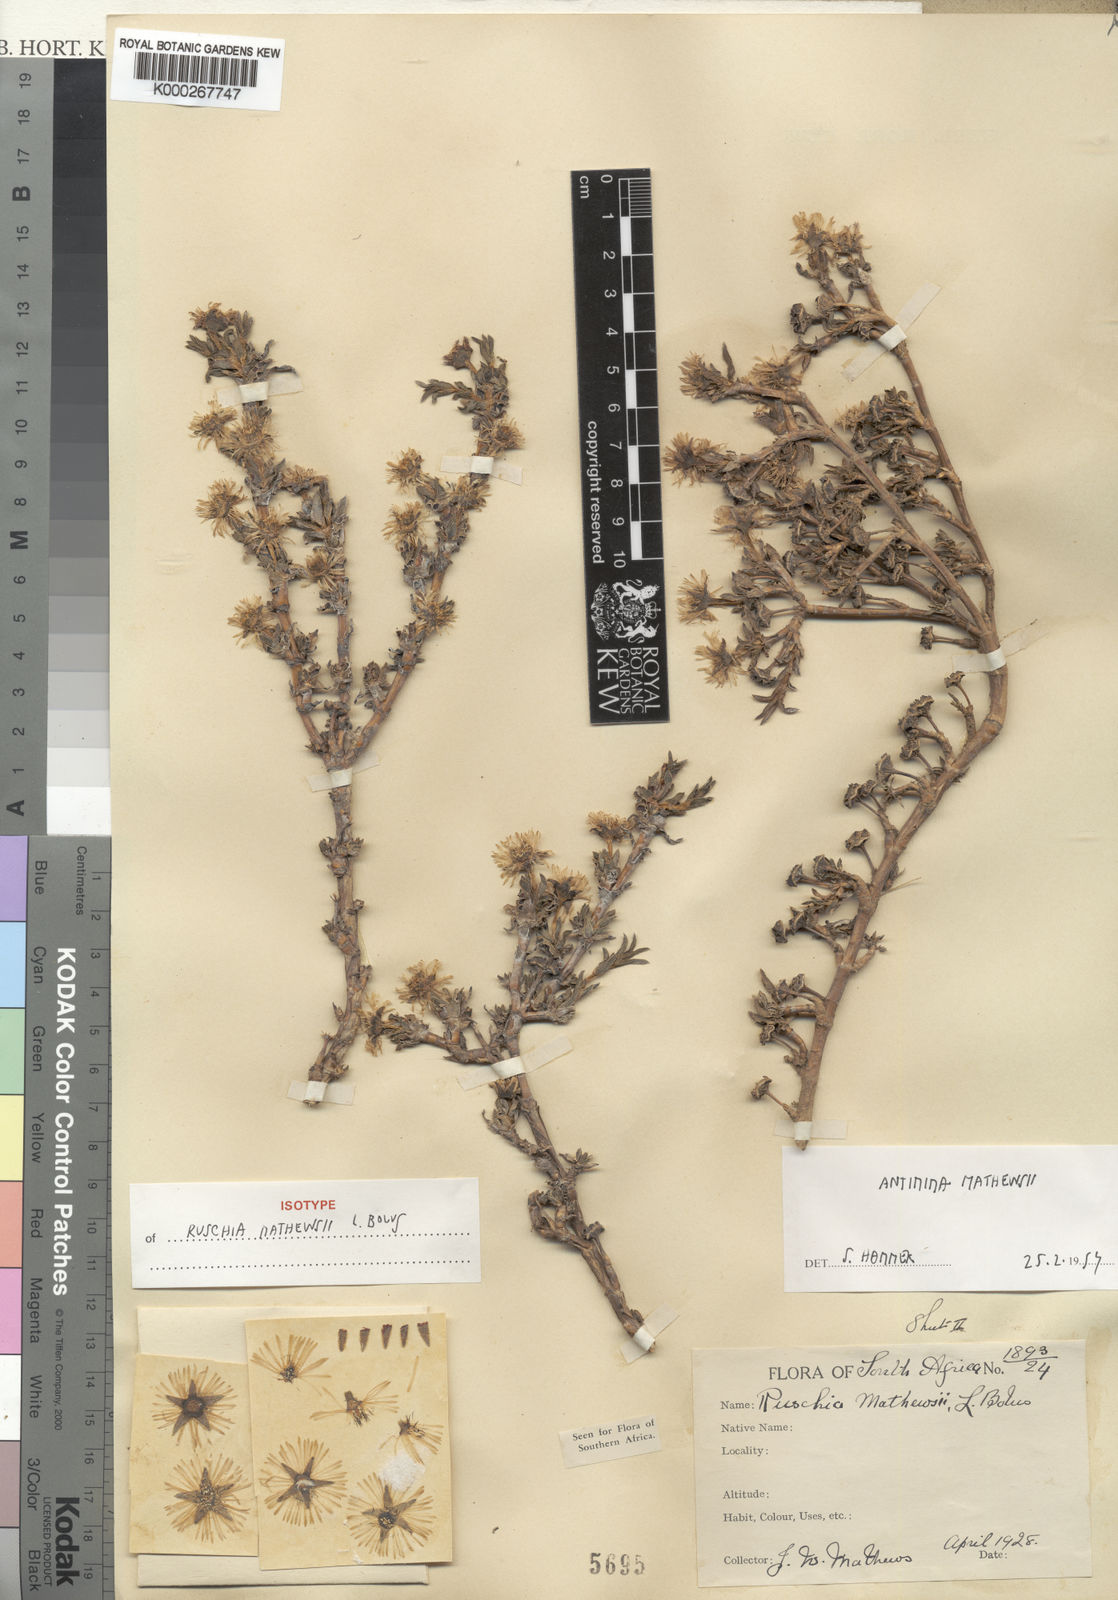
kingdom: Plantae
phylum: Tracheophyta
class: Magnoliopsida
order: Caryophyllales
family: Aizoaceae
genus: Antimima
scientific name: Antimima mucronata
